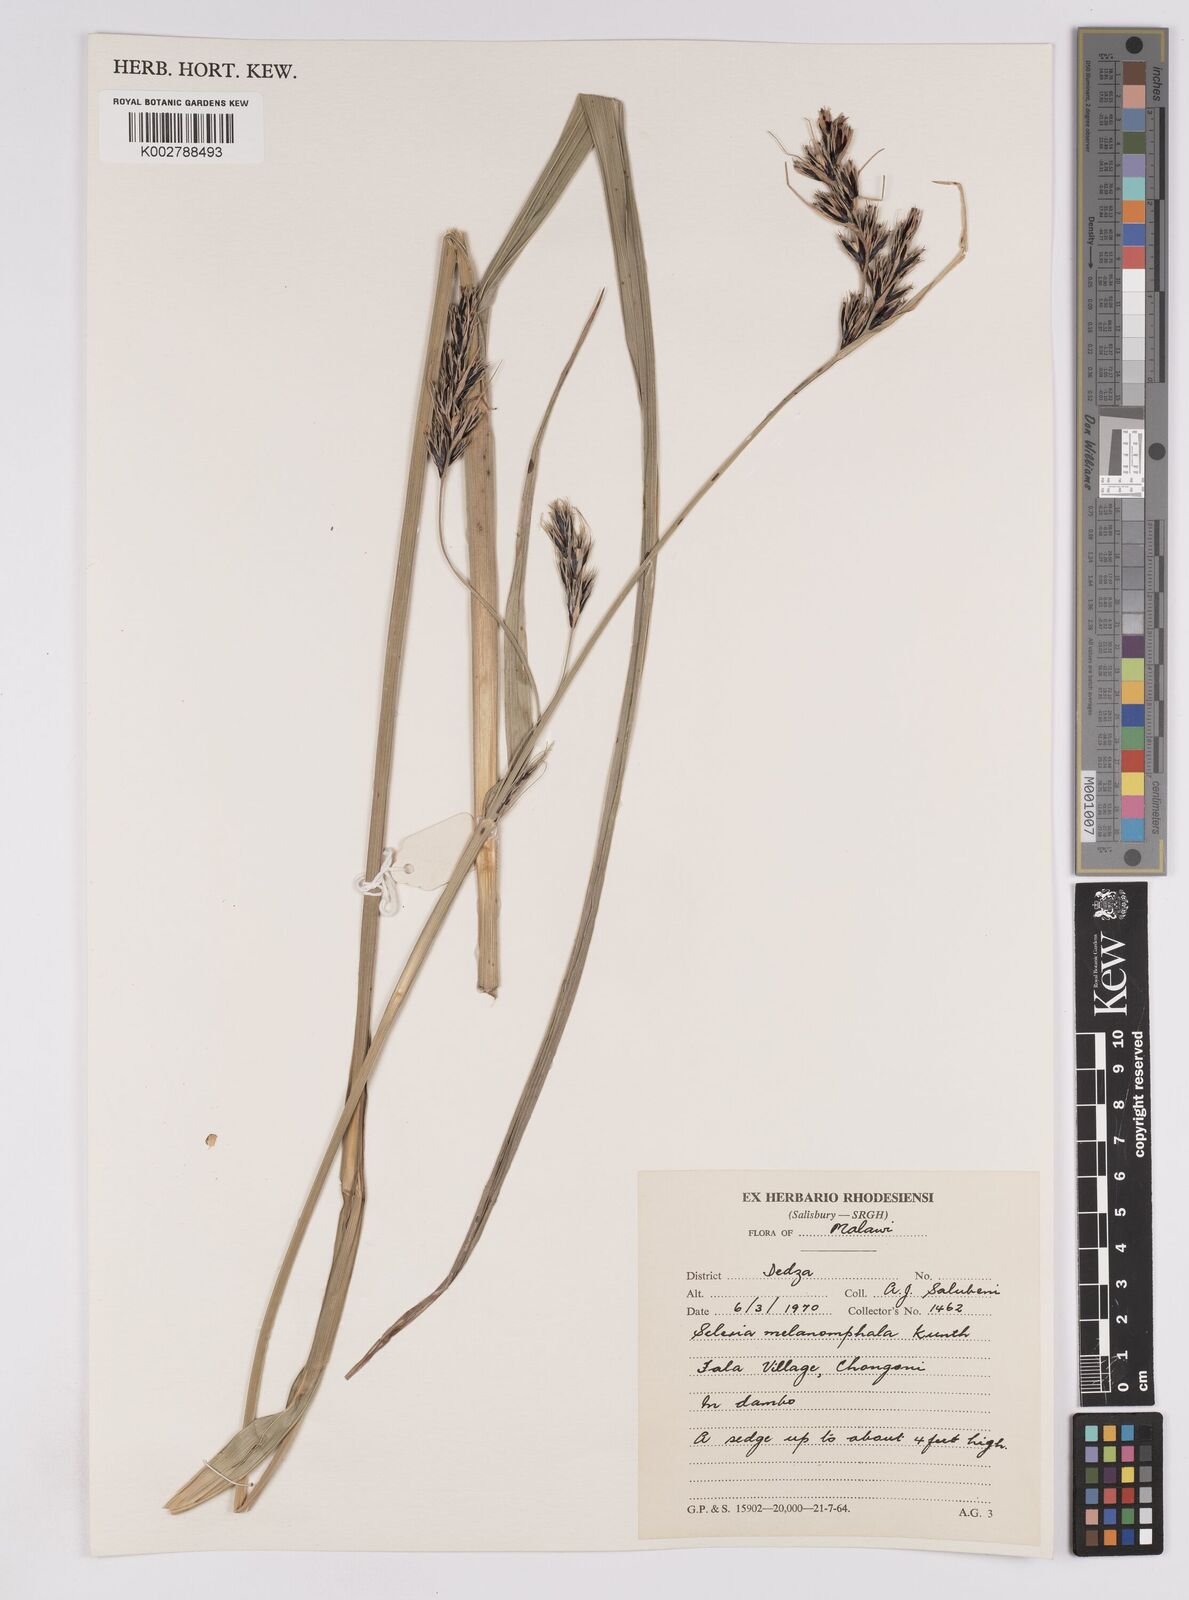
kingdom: Plantae
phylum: Tracheophyta
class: Liliopsida
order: Poales
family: Cyperaceae
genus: Scleria
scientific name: Scleria melanomphala
